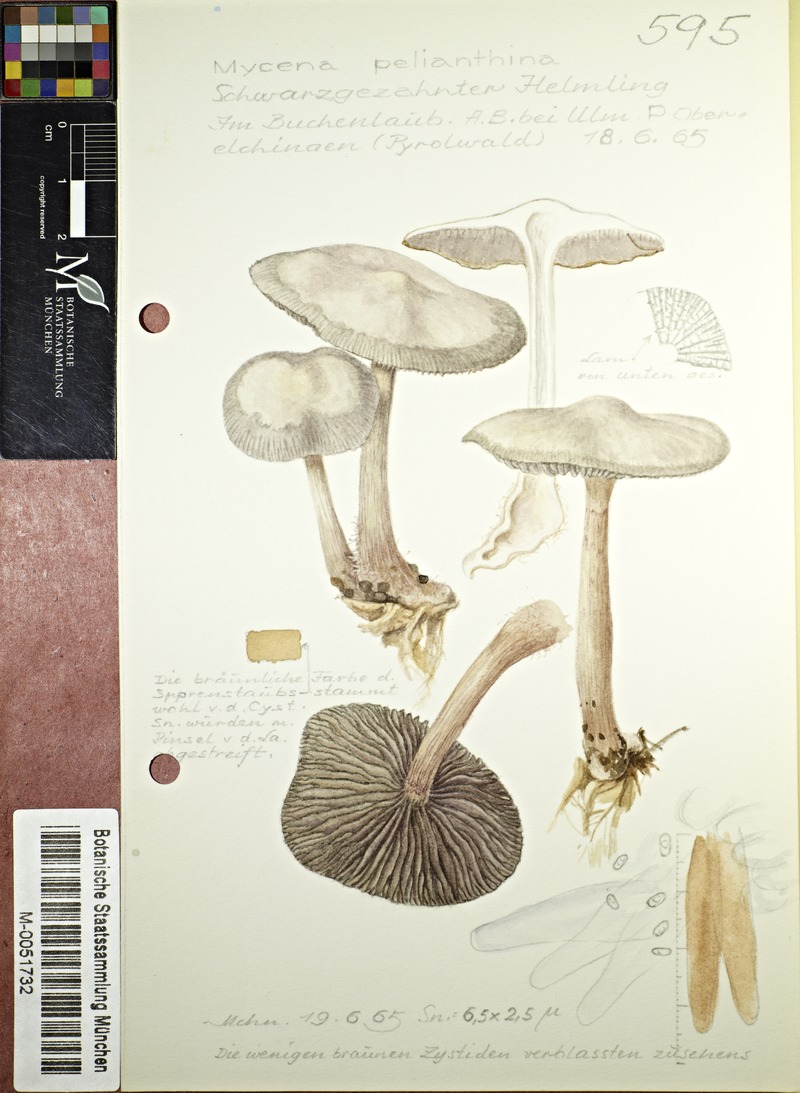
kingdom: Fungi
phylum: Basidiomycota
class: Agaricomycetes
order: Agaricales
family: Mycenaceae
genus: Mycena
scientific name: Mycena pelianthina
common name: Blackedge bonnet
